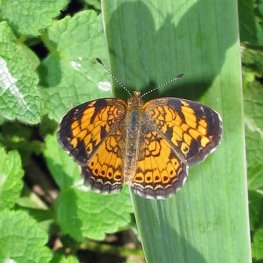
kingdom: Animalia
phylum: Arthropoda
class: Insecta
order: Lepidoptera
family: Nymphalidae
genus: Phyciodes
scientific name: Phyciodes tharos
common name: Pearl Crescent
